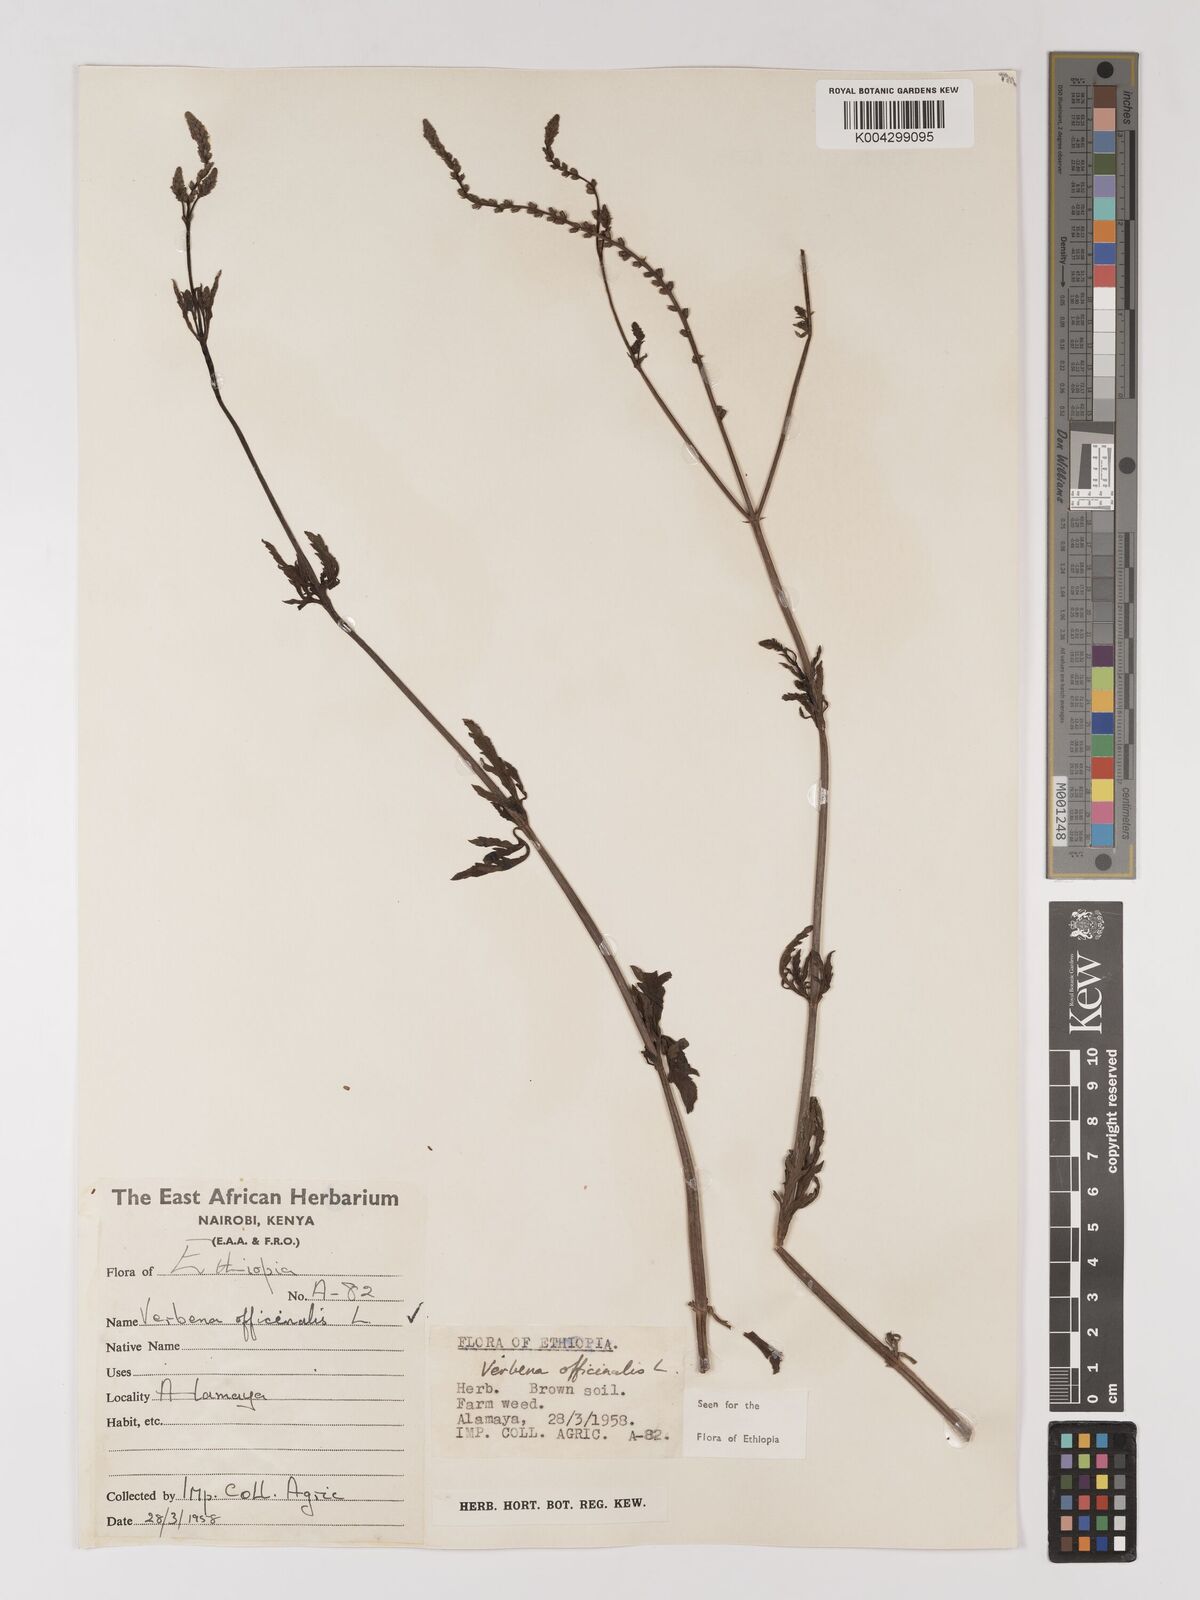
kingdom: Plantae
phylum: Tracheophyta
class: Magnoliopsida
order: Lamiales
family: Verbenaceae
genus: Verbena
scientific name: Verbena officinalis
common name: Vervain
